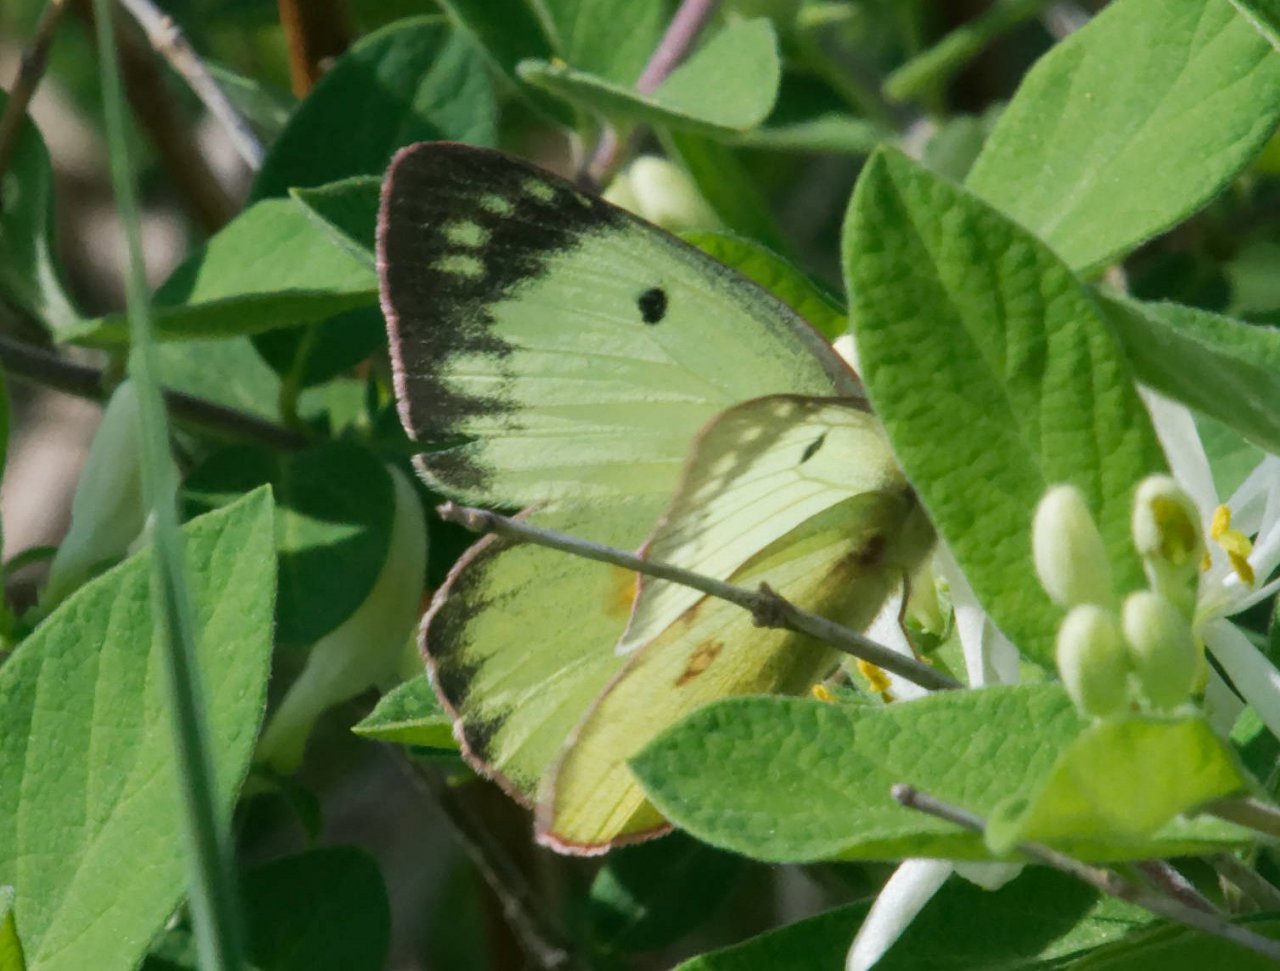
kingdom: Animalia
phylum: Arthropoda
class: Insecta
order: Lepidoptera
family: Pieridae
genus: Colias
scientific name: Colias philodice
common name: Clouded Sulphur
